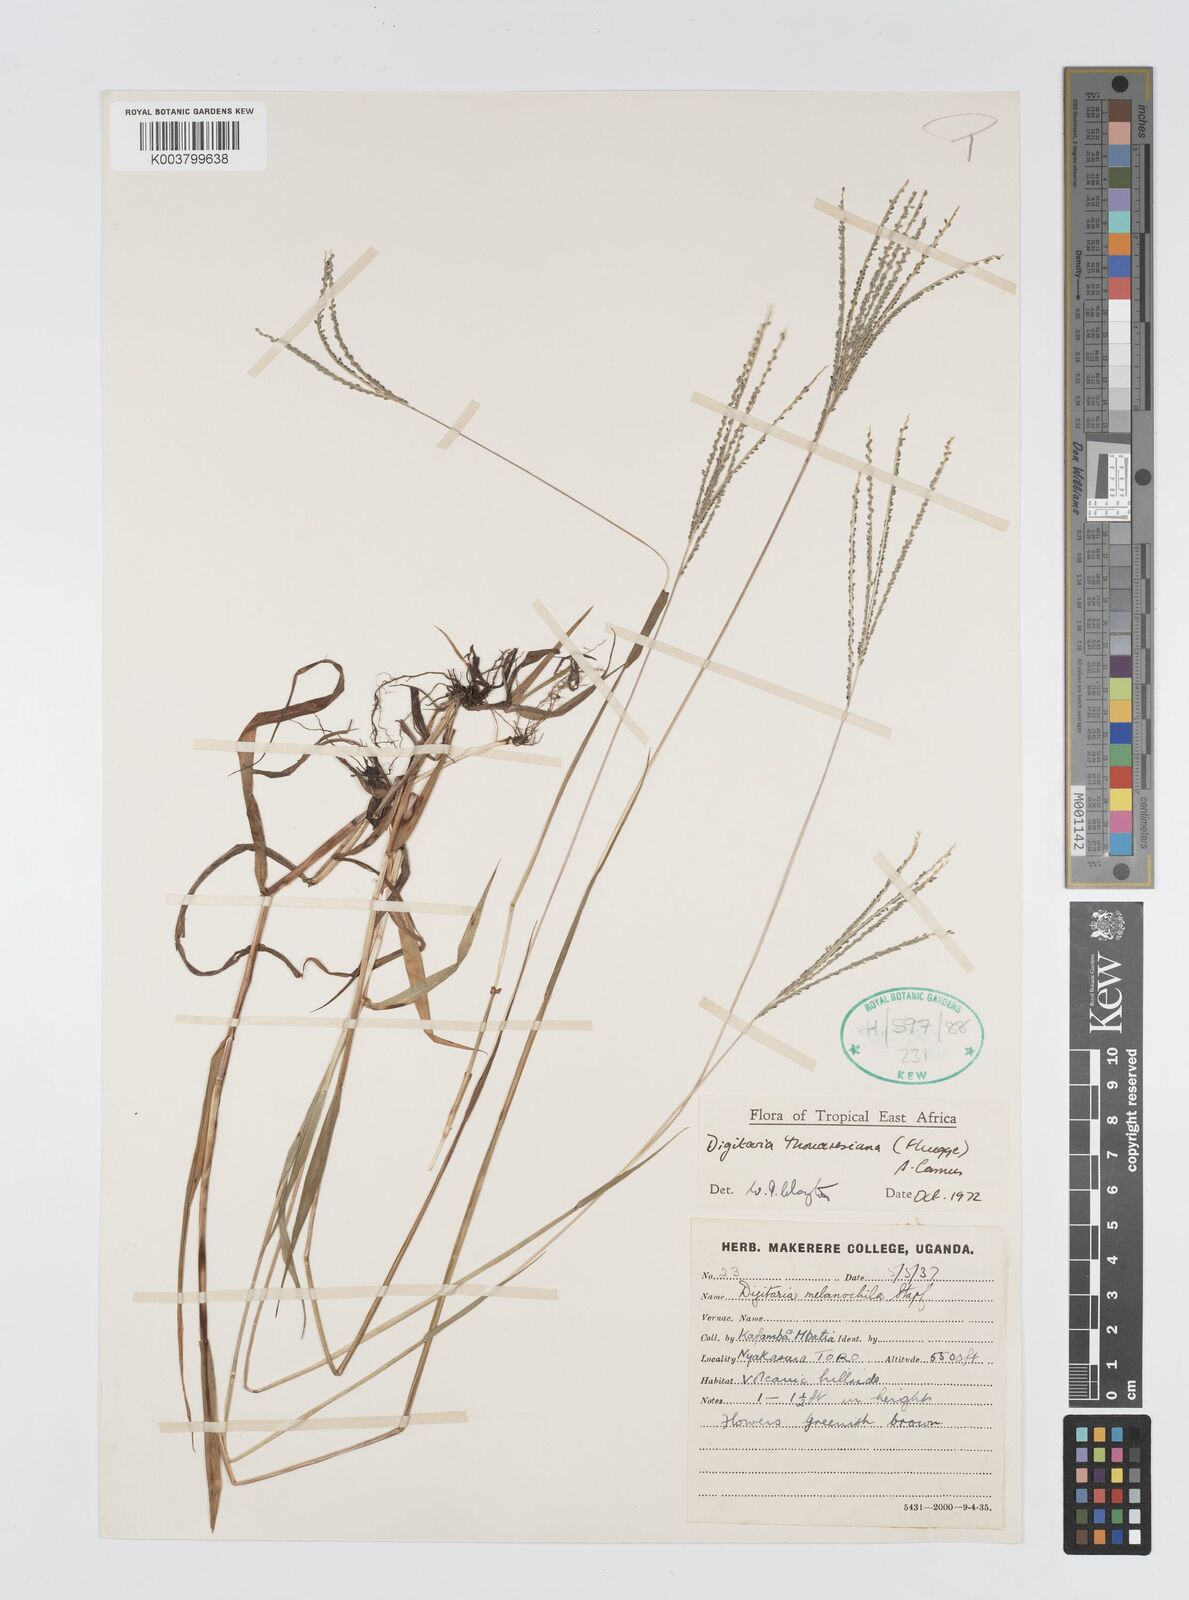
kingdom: Plantae
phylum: Tracheophyta
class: Liliopsida
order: Poales
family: Poaceae
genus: Digitaria
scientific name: Digitaria thouarsiana
